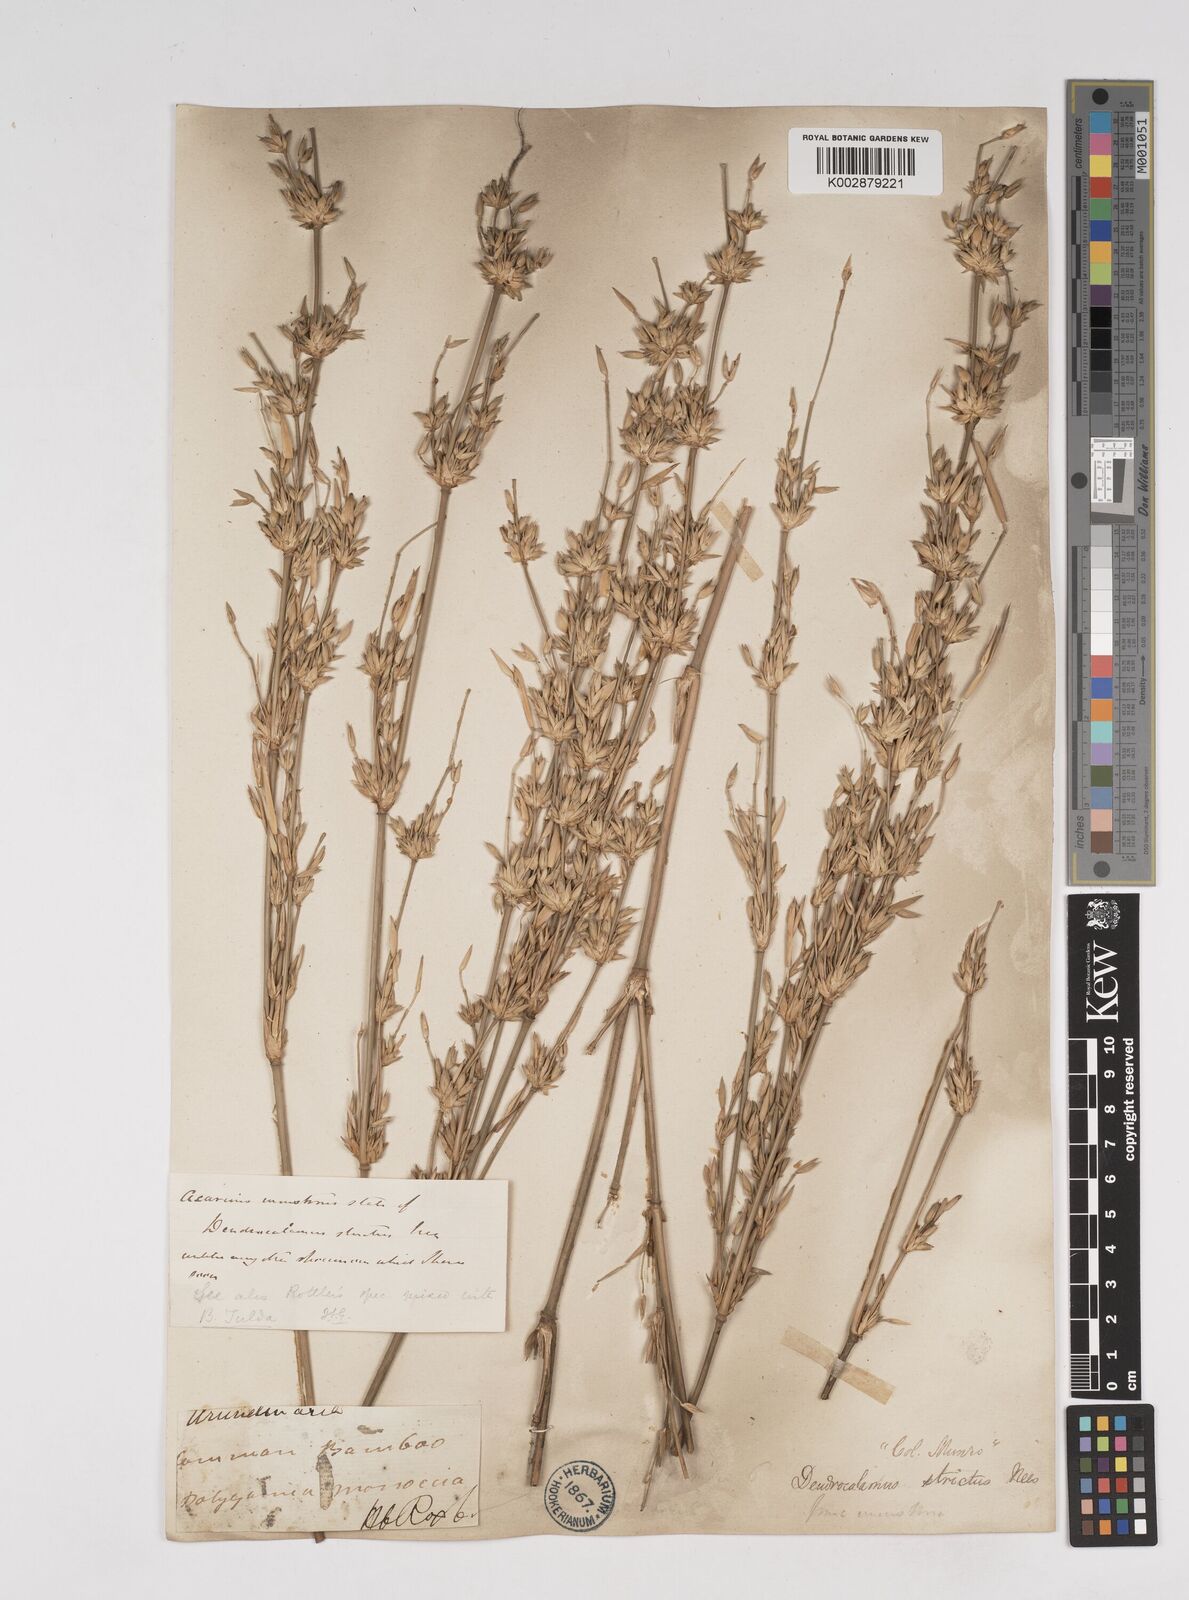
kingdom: Plantae
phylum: Tracheophyta
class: Liliopsida
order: Poales
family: Poaceae
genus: Dendrocalamus
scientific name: Dendrocalamus strictus
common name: Male bamboo
